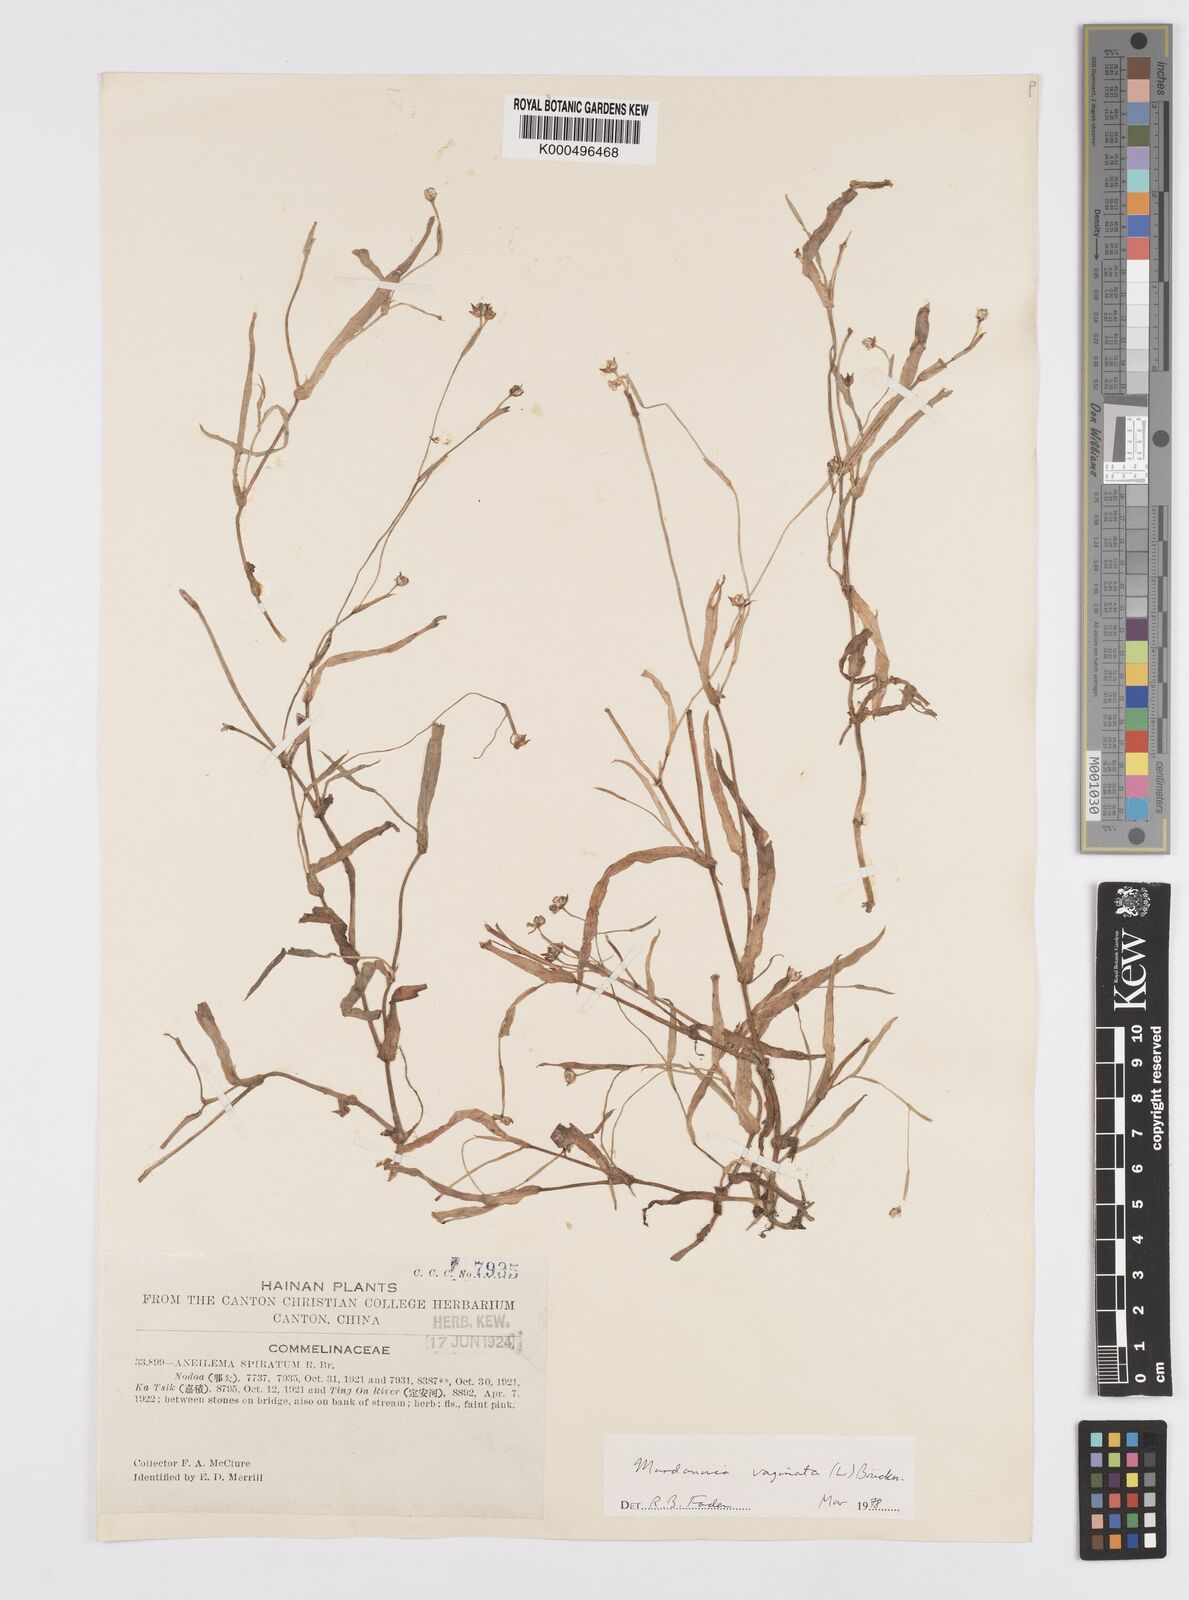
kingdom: Plantae
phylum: Tracheophyta
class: Liliopsida
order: Commelinales
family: Commelinaceae
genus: Murdannia
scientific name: Murdannia
